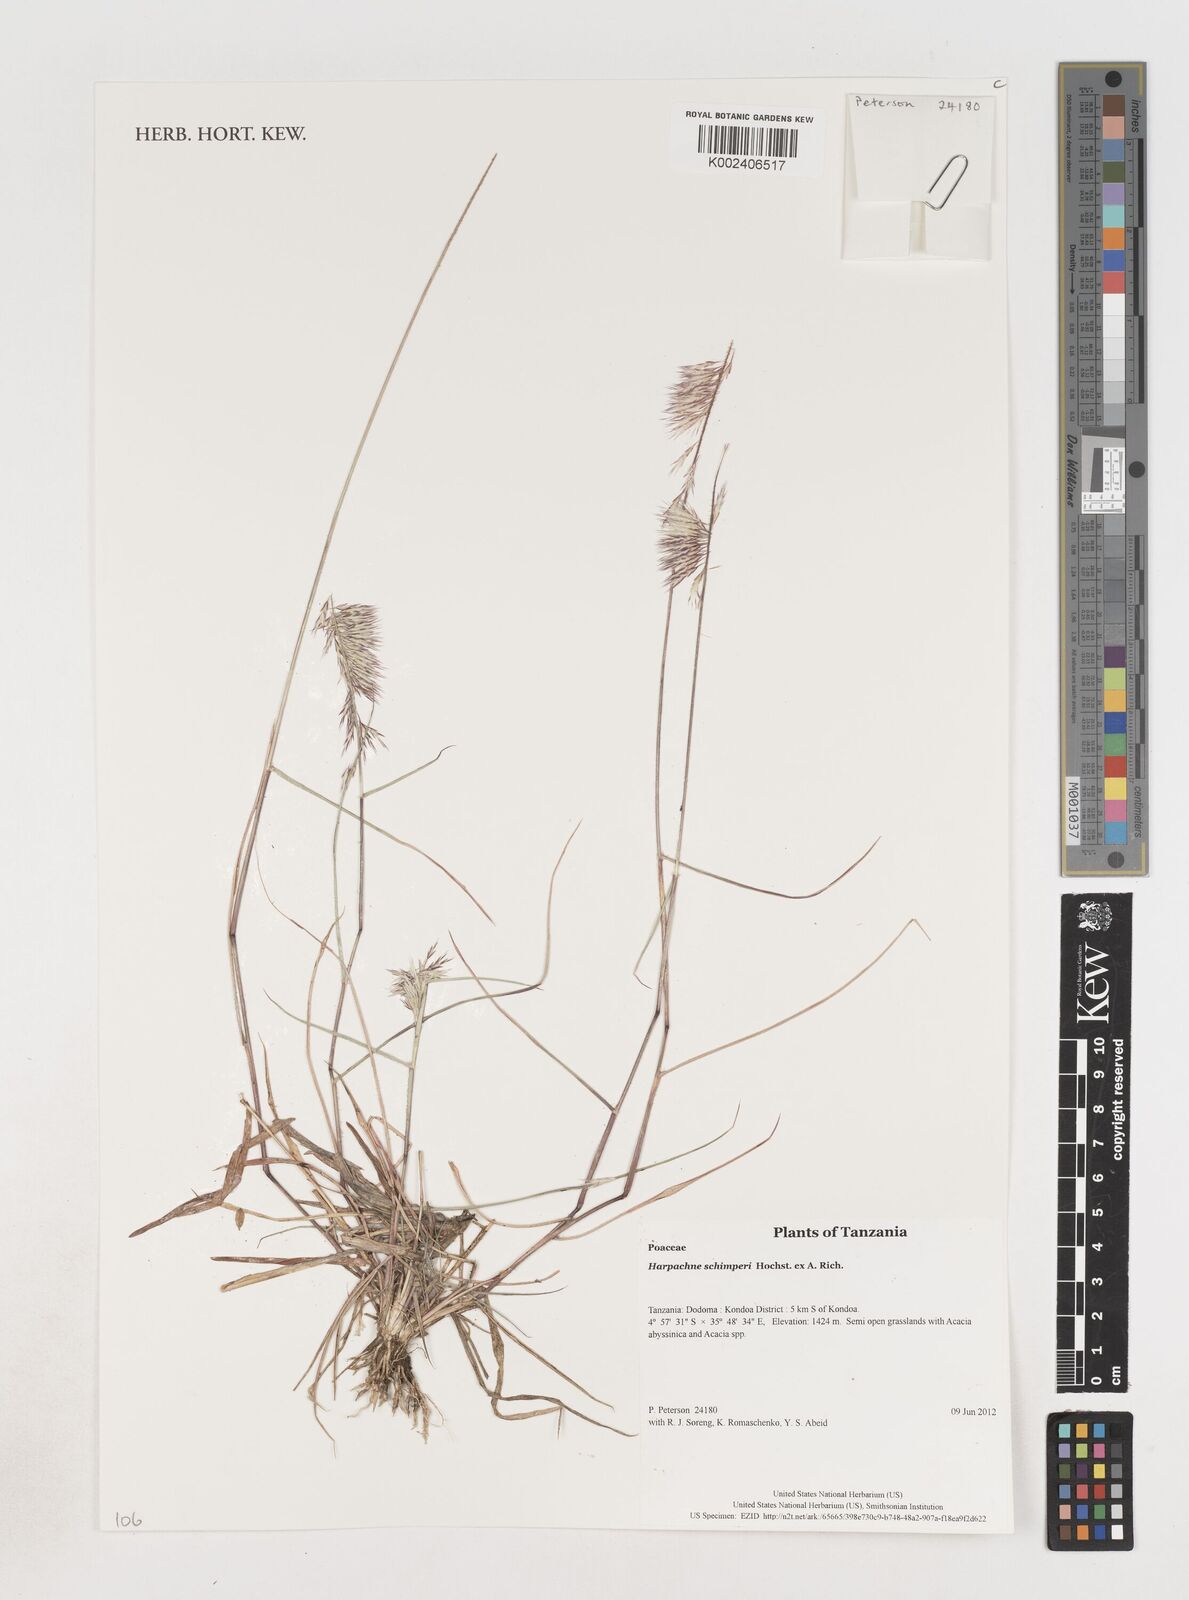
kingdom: Plantae
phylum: Tracheophyta
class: Liliopsida
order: Poales
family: Poaceae
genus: Harpachne
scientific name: Harpachne schimperi
